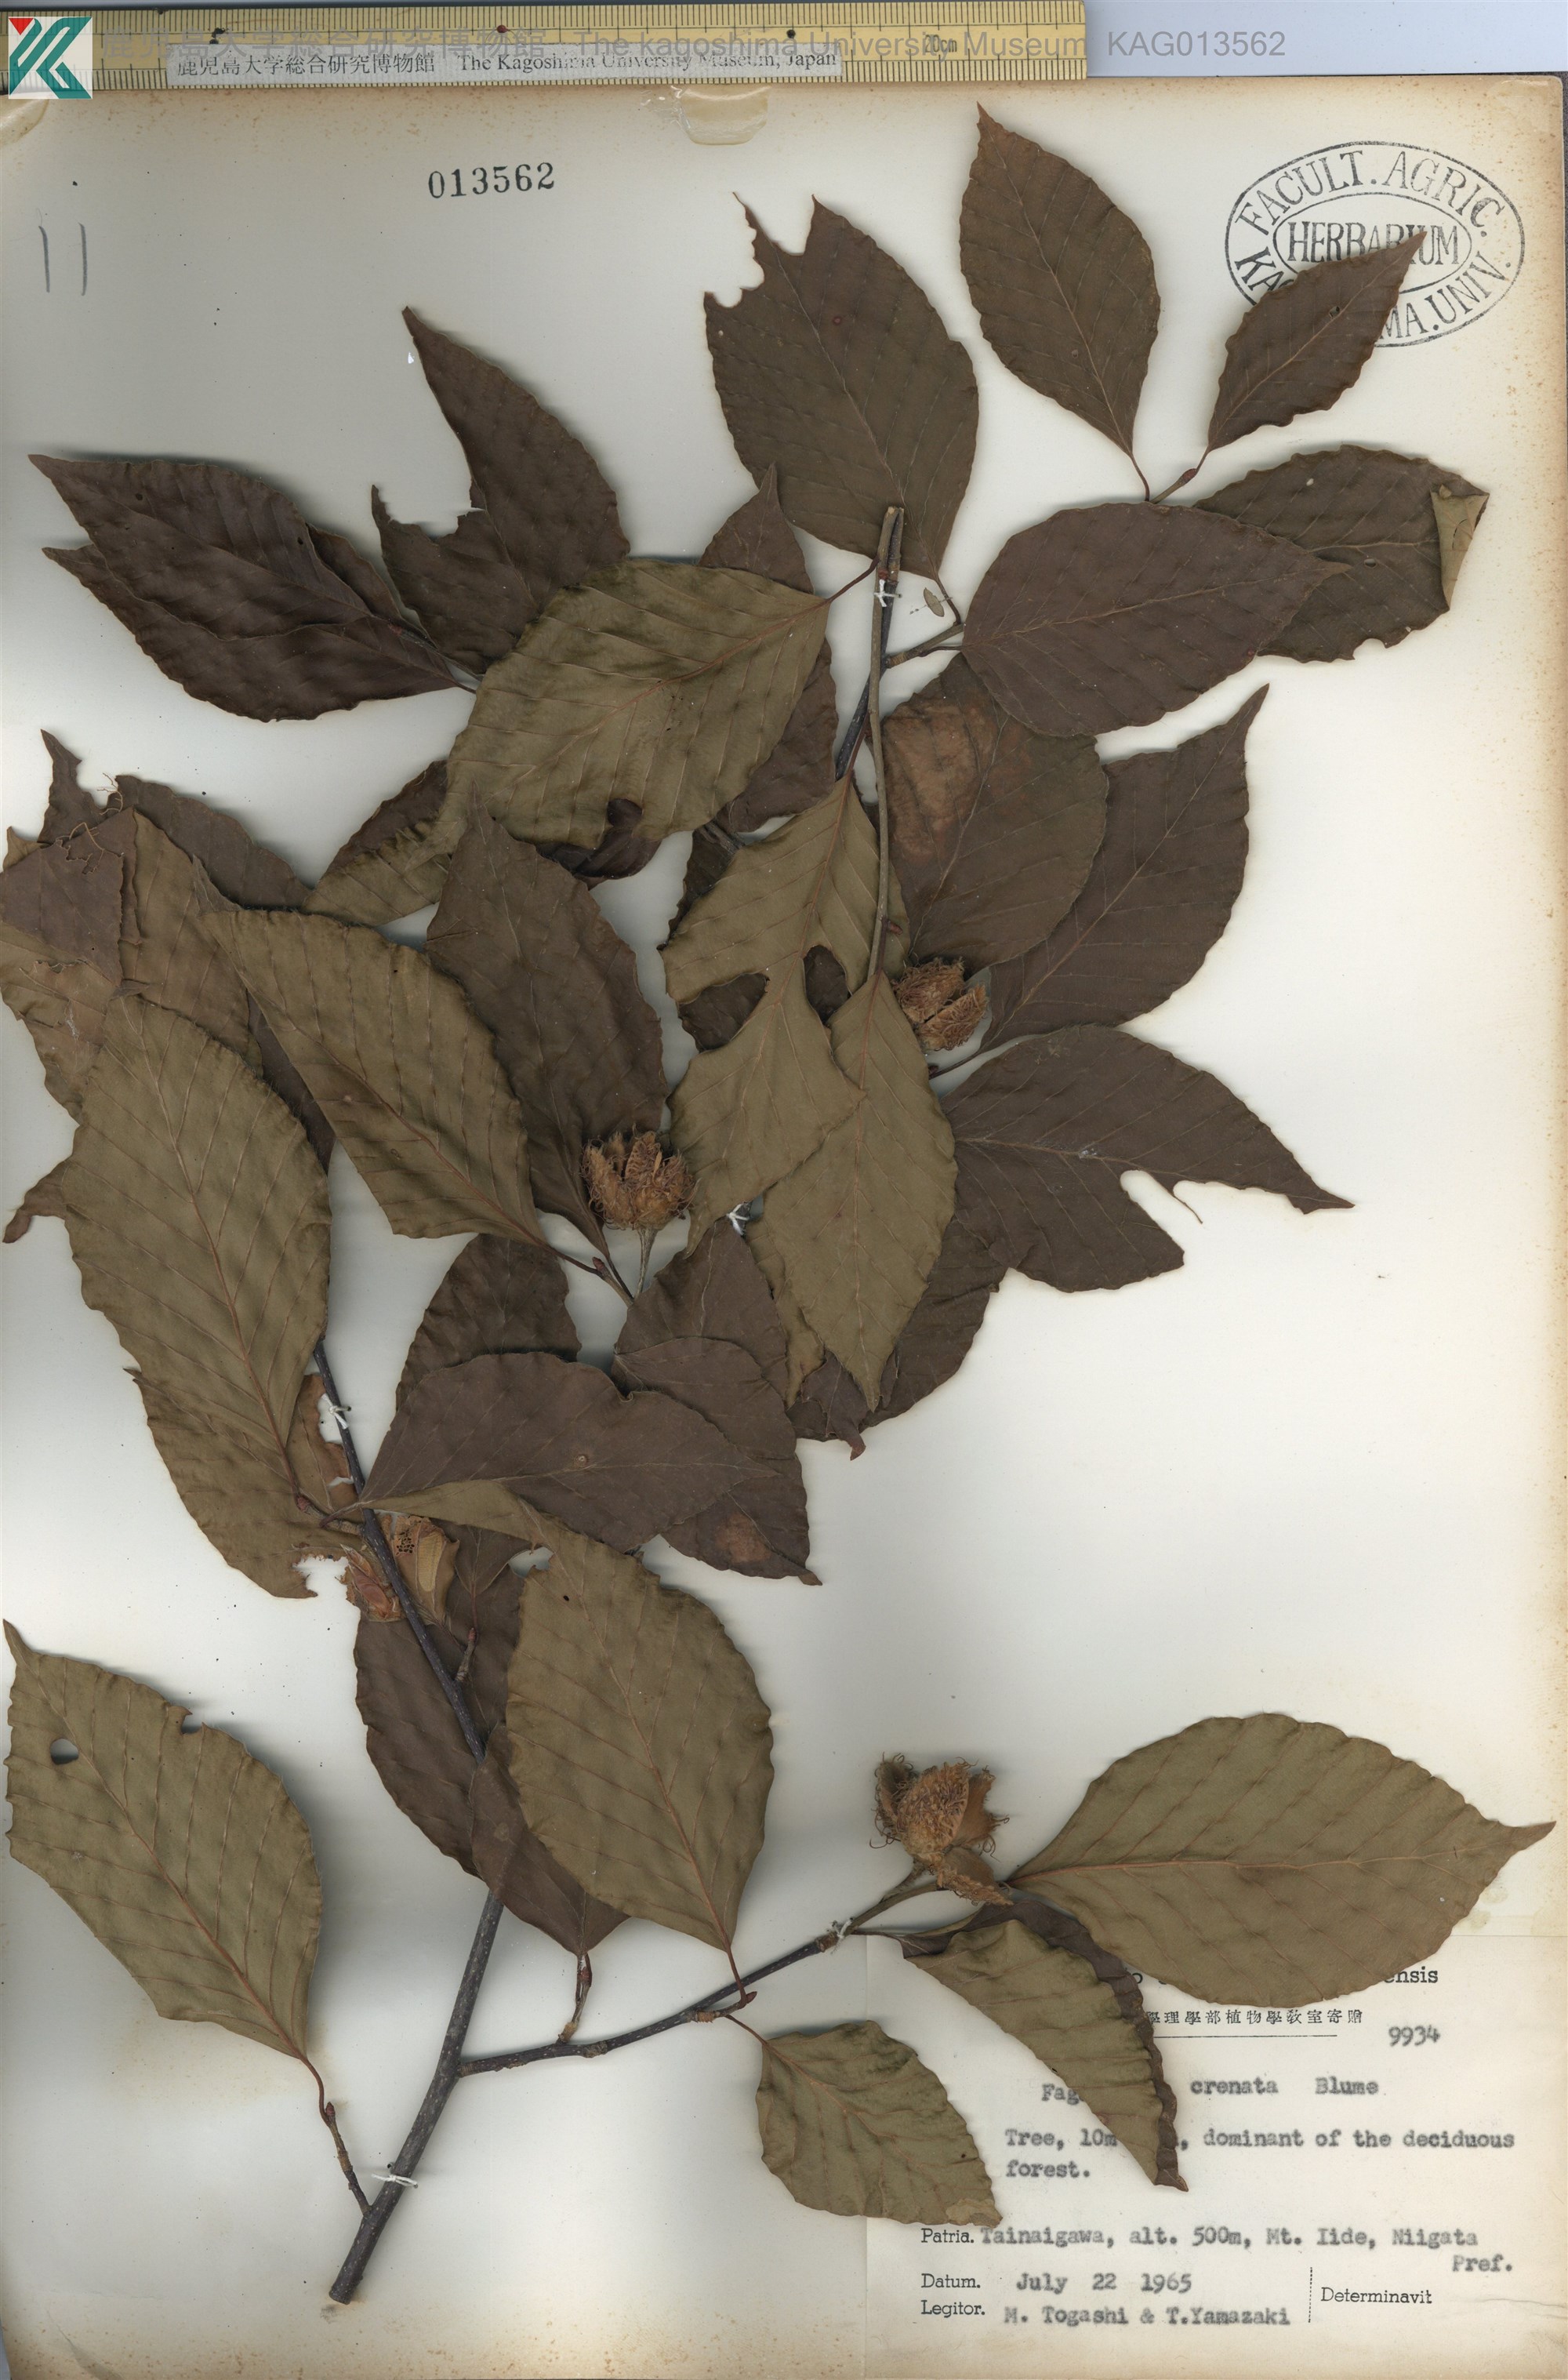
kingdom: Plantae
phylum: Tracheophyta
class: Magnoliopsida
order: Fagales
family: Fagaceae
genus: Fagus
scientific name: Fagus crenata
